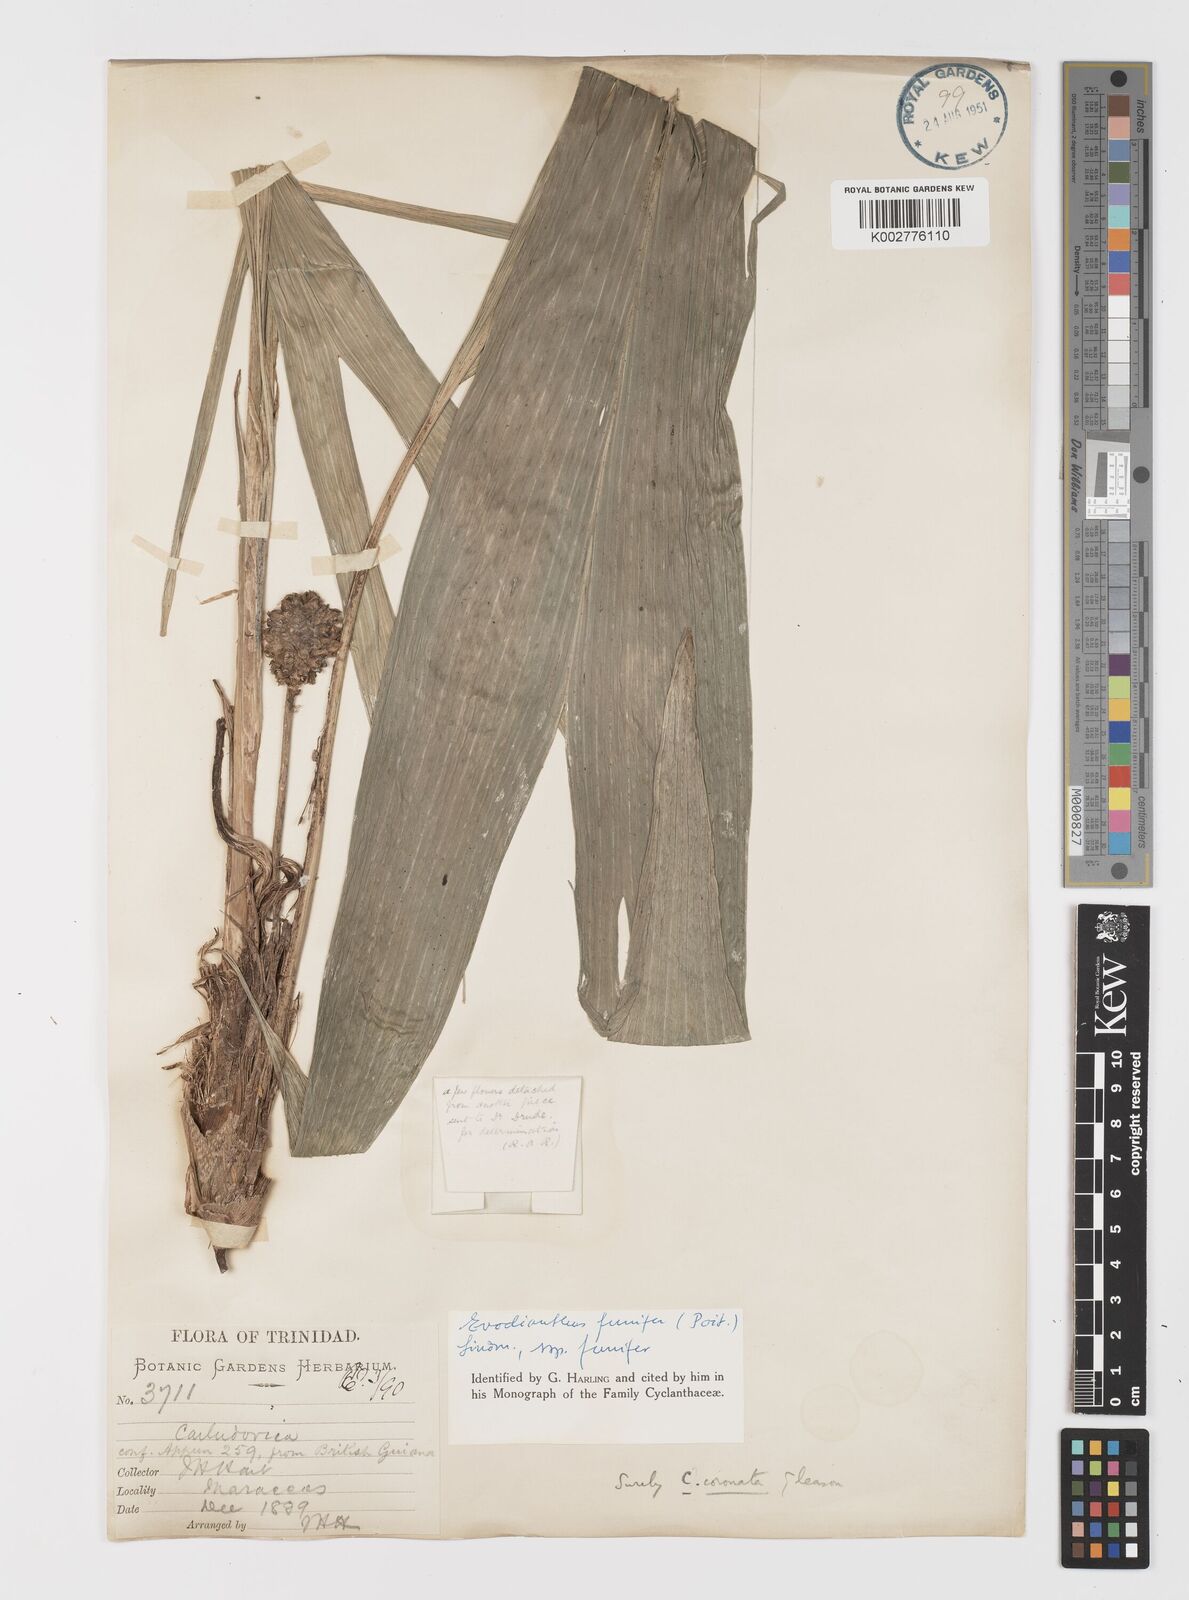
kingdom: Plantae
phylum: Tracheophyta
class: Liliopsida
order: Pandanales
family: Cyclanthaceae
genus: Evodianthus
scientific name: Evodianthus funifer
